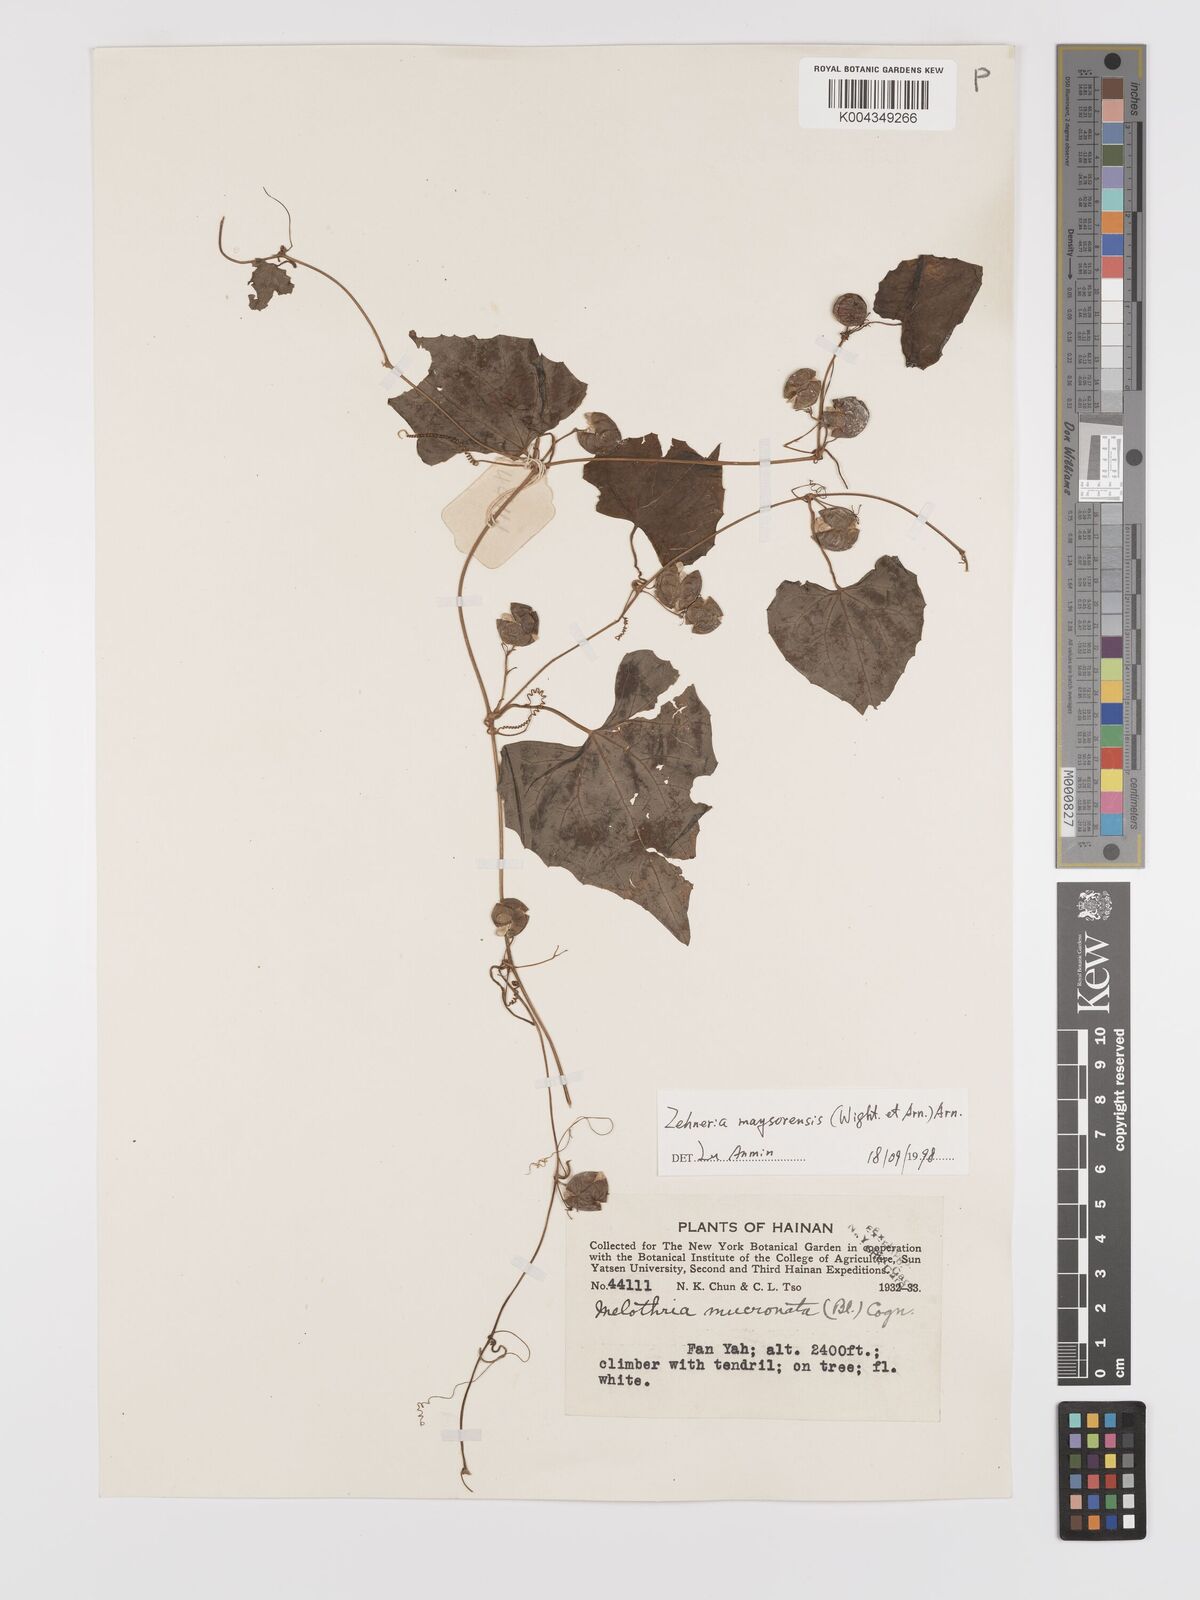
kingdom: Plantae
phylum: Tracheophyta
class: Magnoliopsida
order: Cucurbitales
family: Cucurbitaceae
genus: Zehneria
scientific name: Zehneria maysorensis
